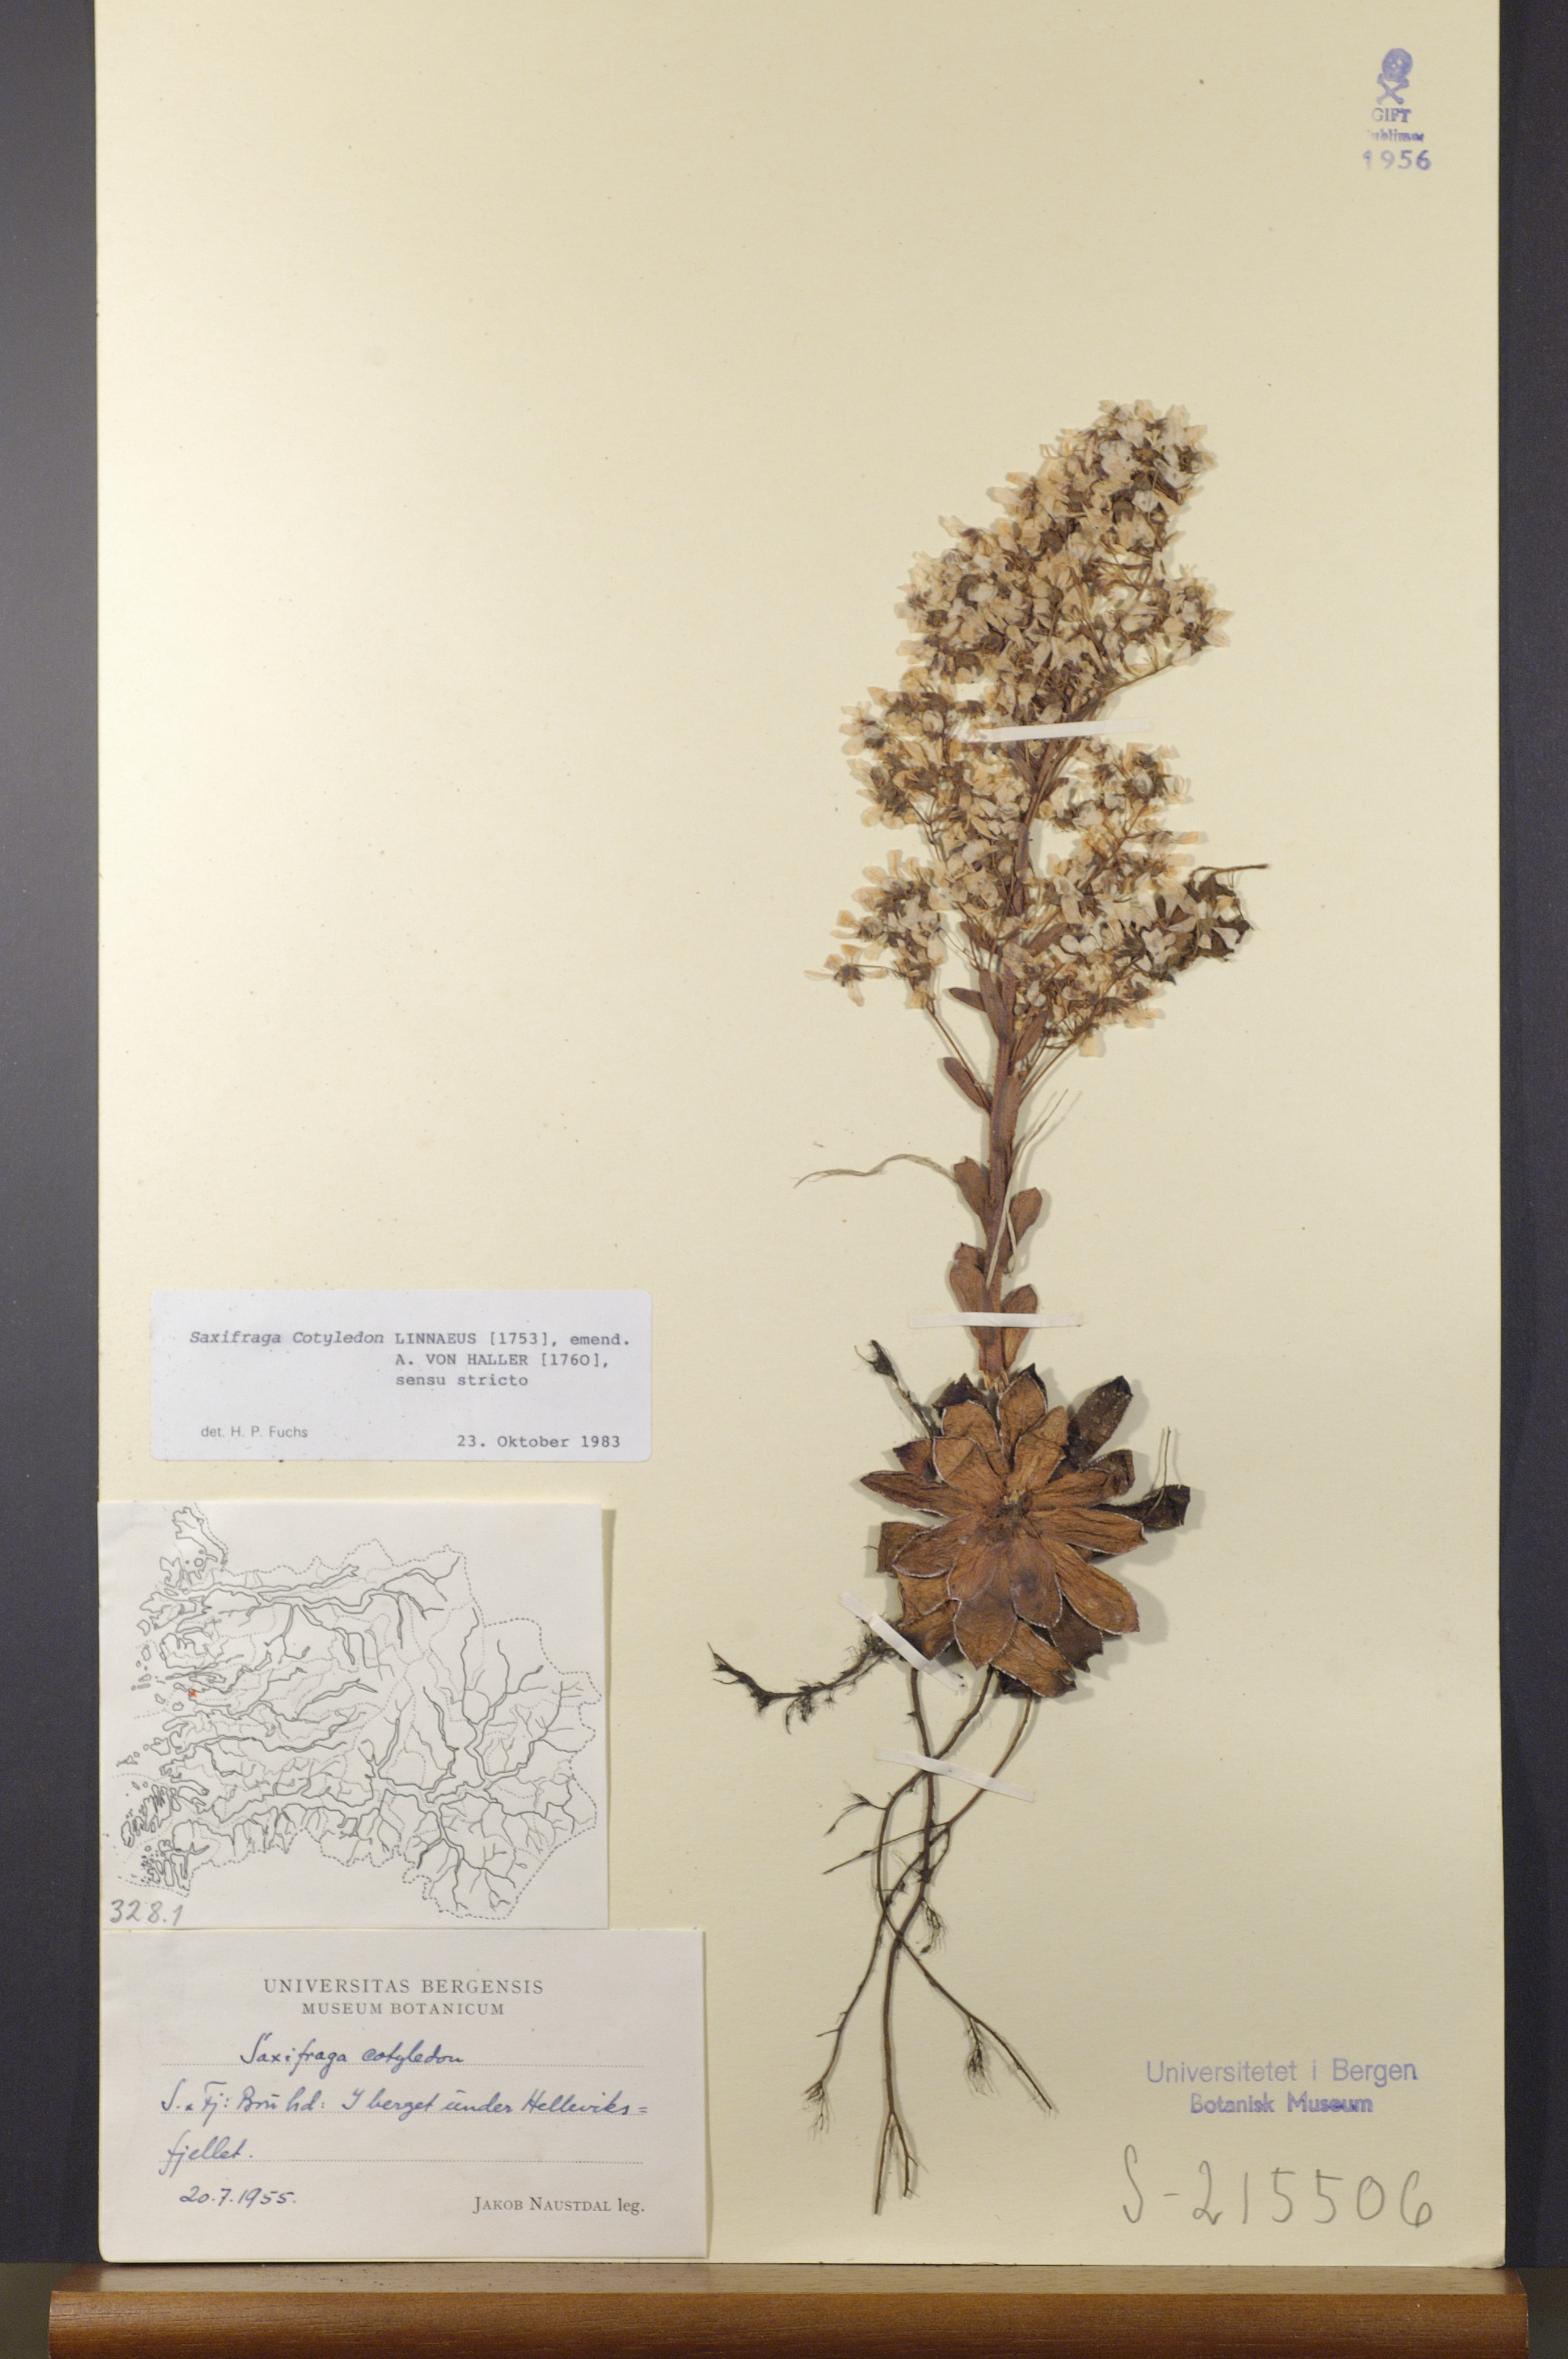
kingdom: Plantae
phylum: Tracheophyta
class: Magnoliopsida
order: Saxifragales
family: Saxifragaceae
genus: Saxifraga
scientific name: Saxifraga cotyledon
